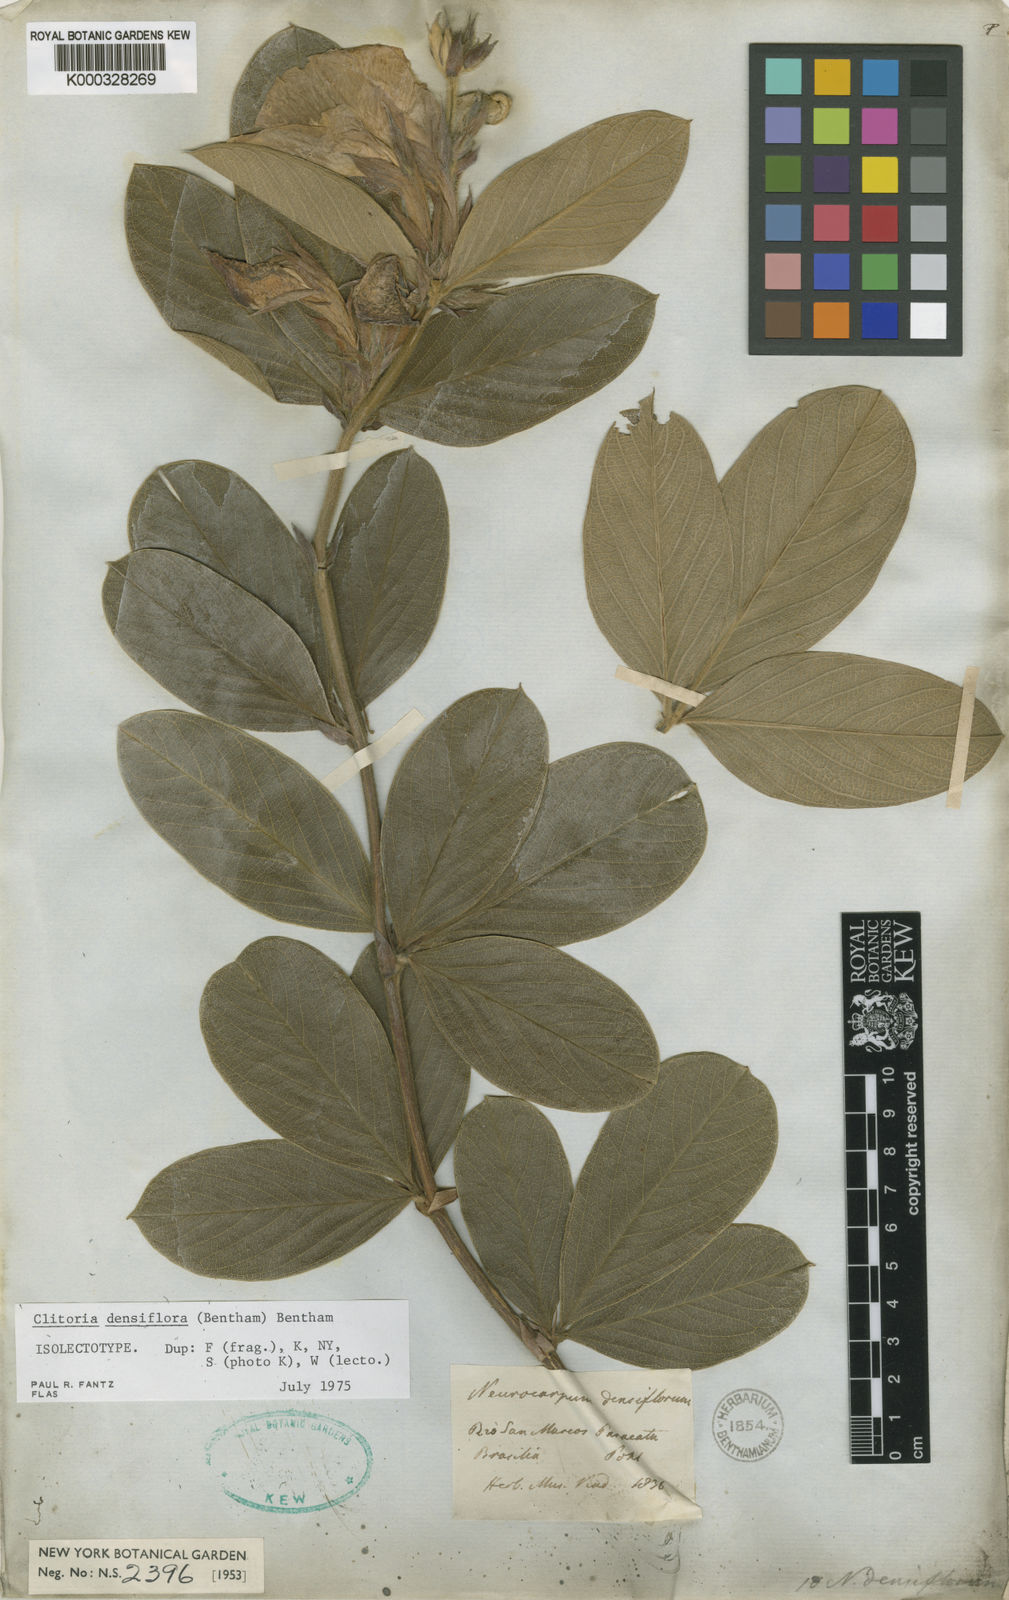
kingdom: Plantae
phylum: Tracheophyta
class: Magnoliopsida
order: Fabales
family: Fabaceae
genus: Clitoria
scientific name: Clitoria densiflora
